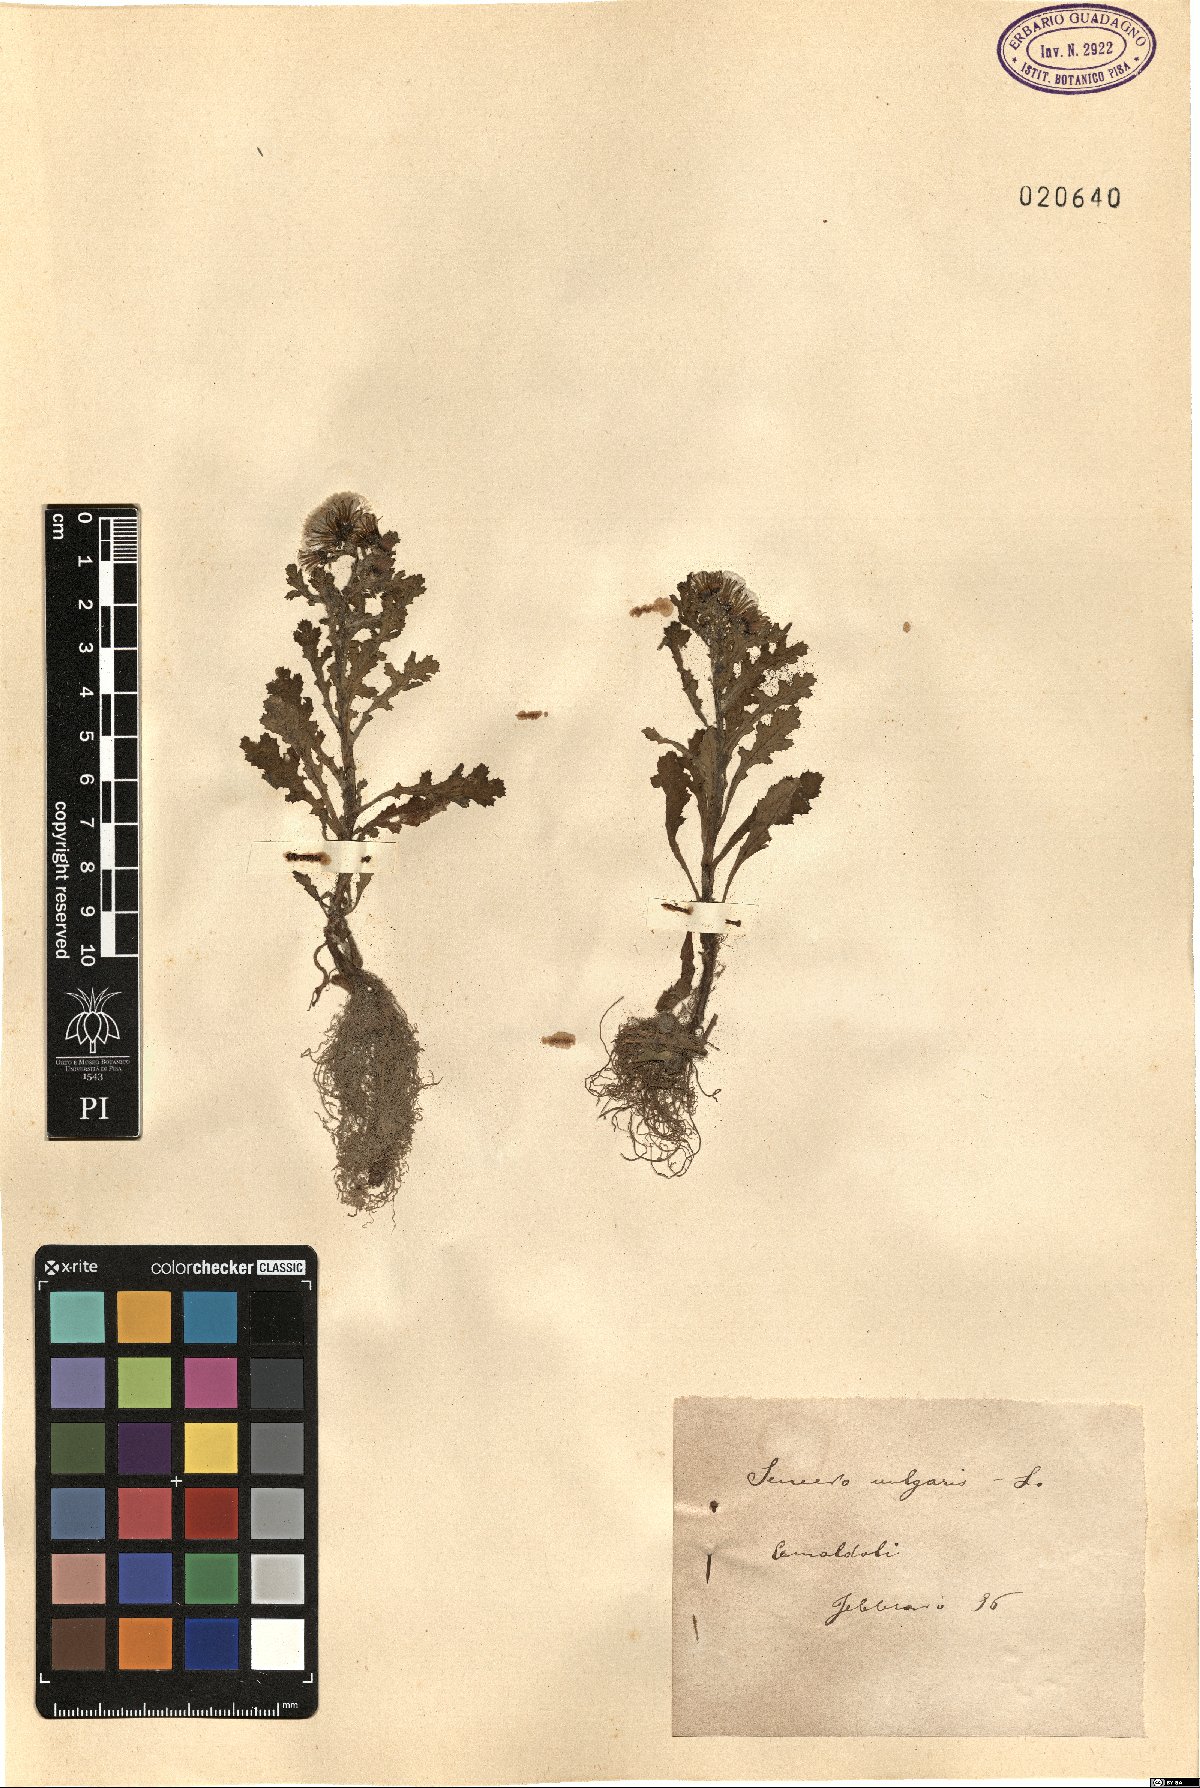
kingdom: Plantae
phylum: Tracheophyta
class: Magnoliopsida
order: Asterales
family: Asteraceae
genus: Senecio
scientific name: Senecio vulgaris
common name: Old-man-in-the-spring
